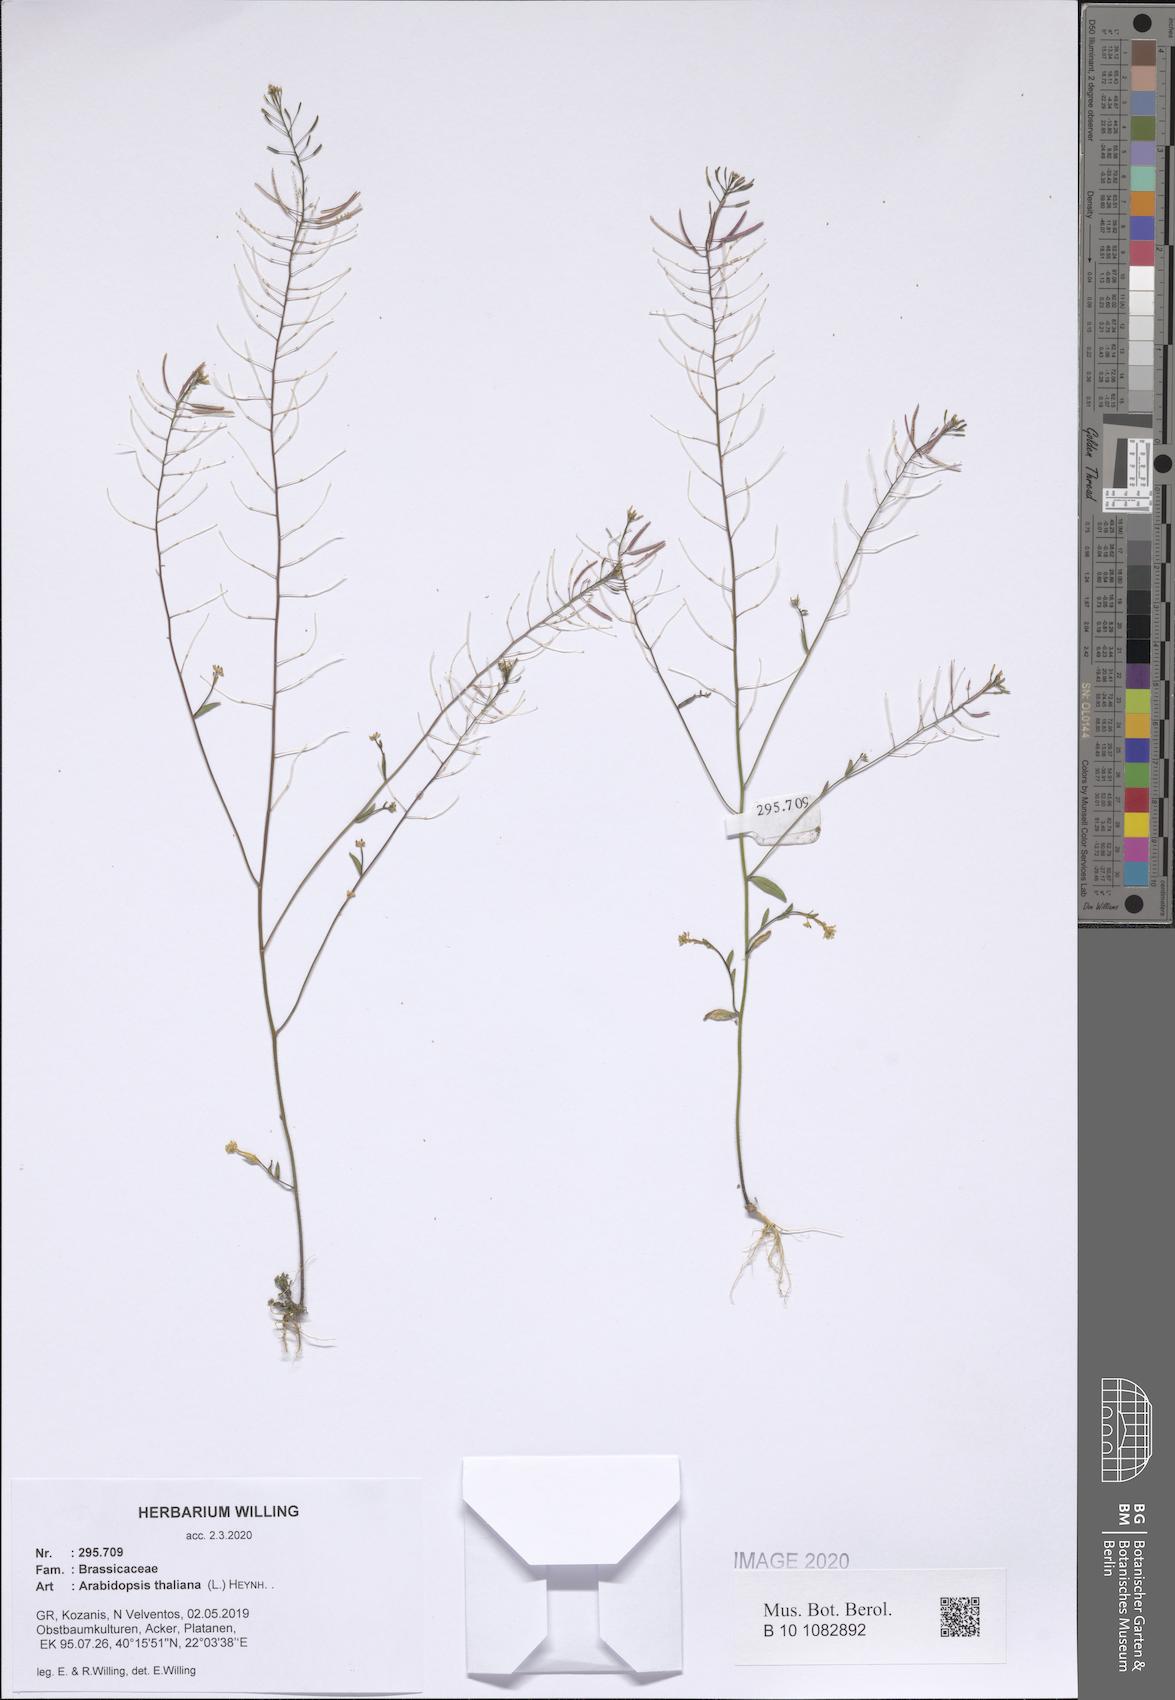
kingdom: Plantae
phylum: Tracheophyta
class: Magnoliopsida
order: Brassicales
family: Brassicaceae
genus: Arabidopsis
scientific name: Arabidopsis thaliana
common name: Thale cress
